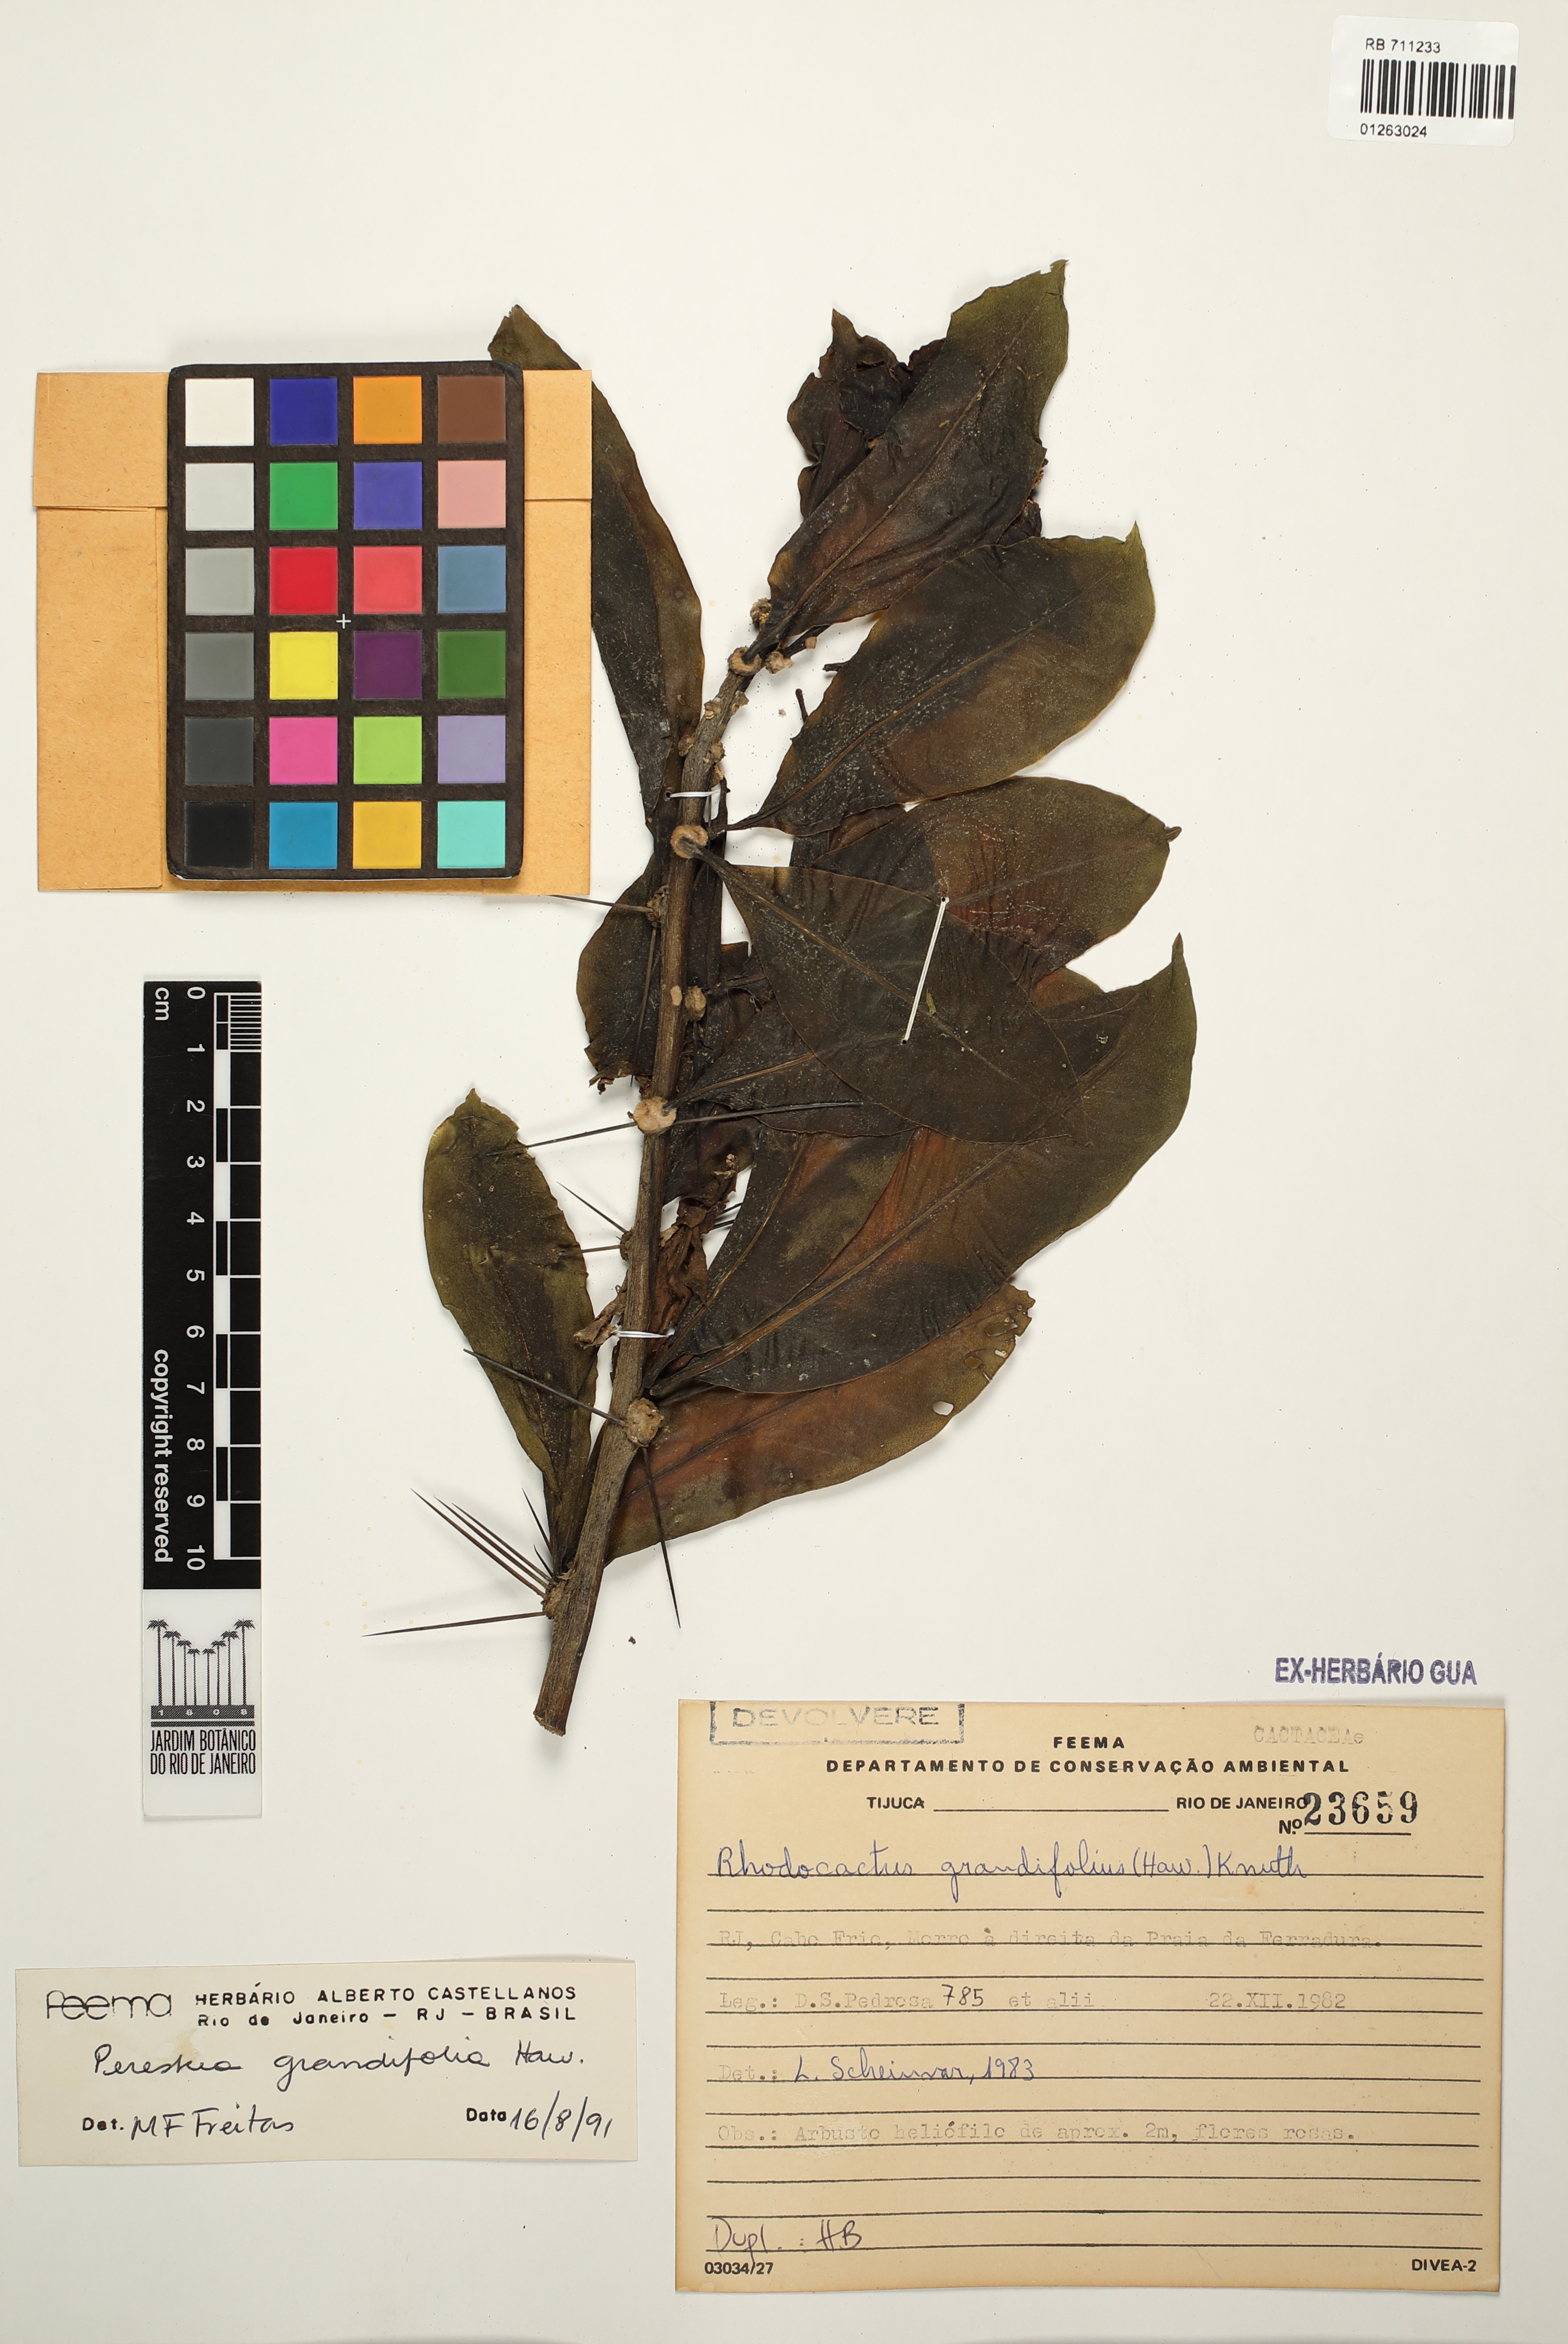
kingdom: Plantae
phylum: Tracheophyta
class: Magnoliopsida
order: Caryophyllales
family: Cactaceae
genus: Pereskia
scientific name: Pereskia grandifolia
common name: Rose cactus
